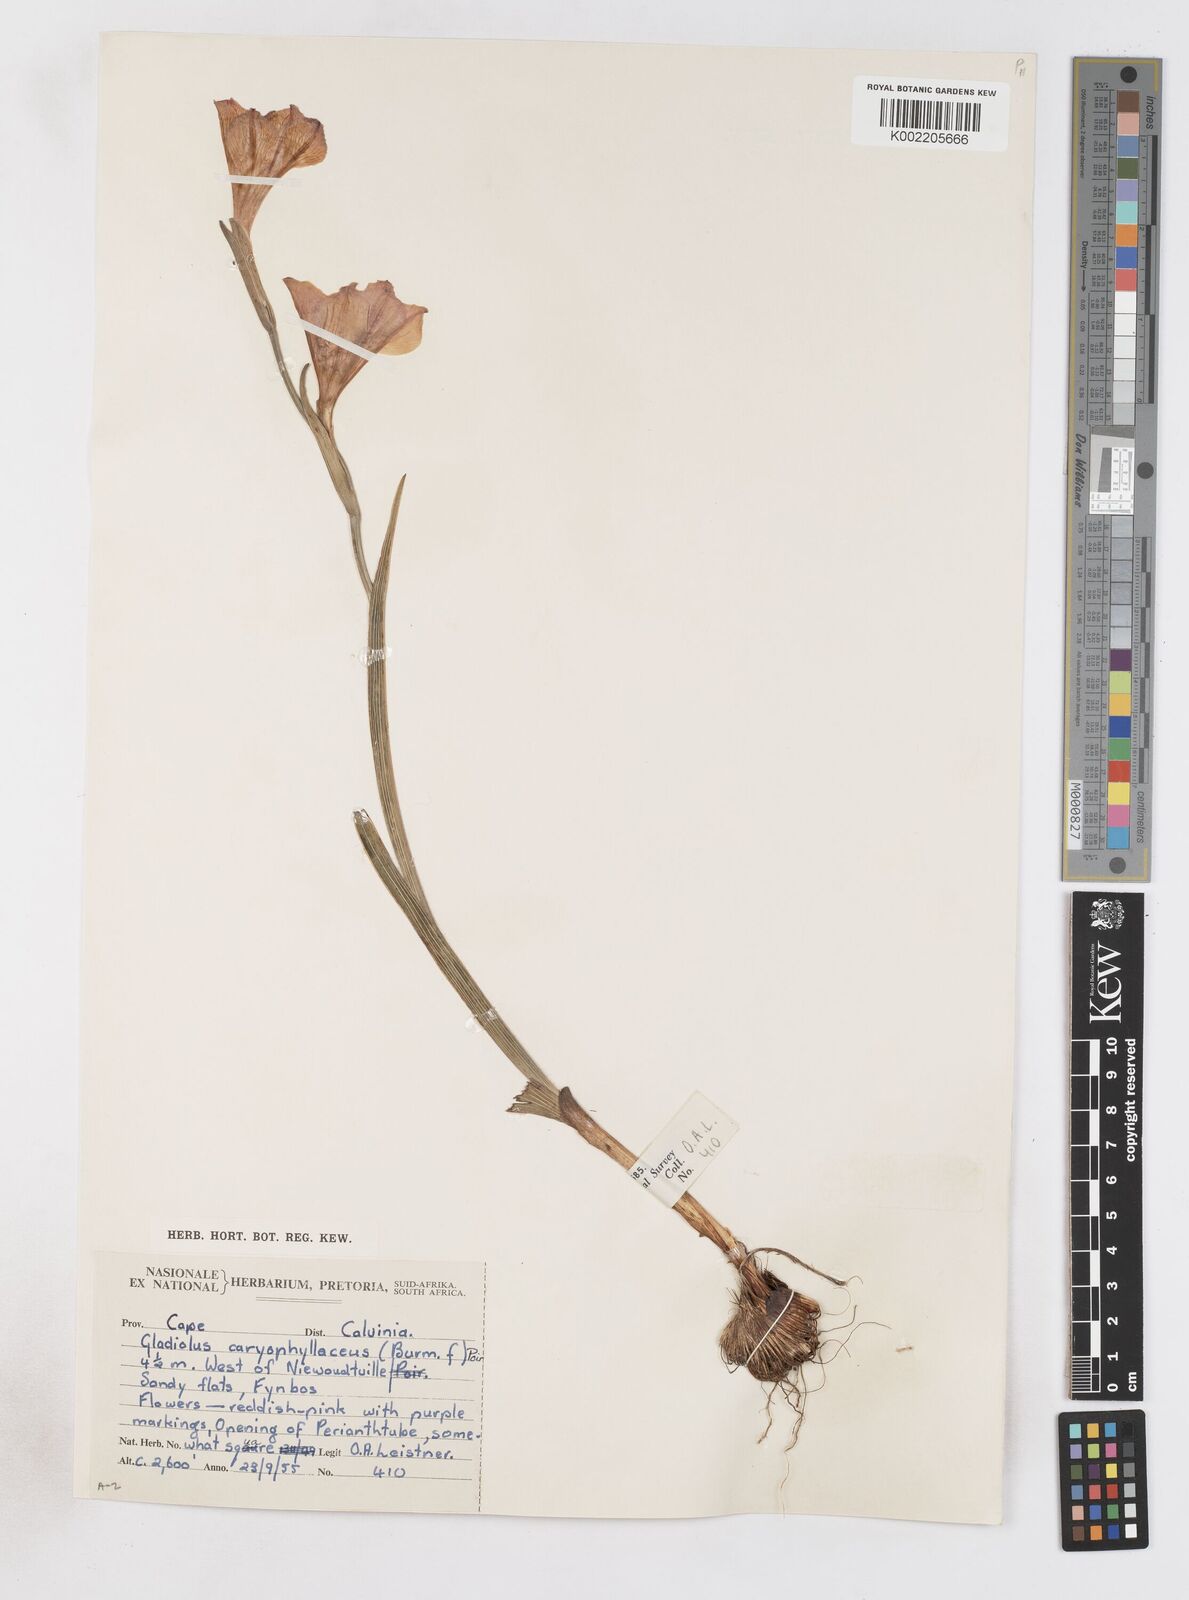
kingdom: Plantae
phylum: Tracheophyta
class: Liliopsida
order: Asparagales
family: Iridaceae
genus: Gladiolus
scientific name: Gladiolus caryophyllaceus
